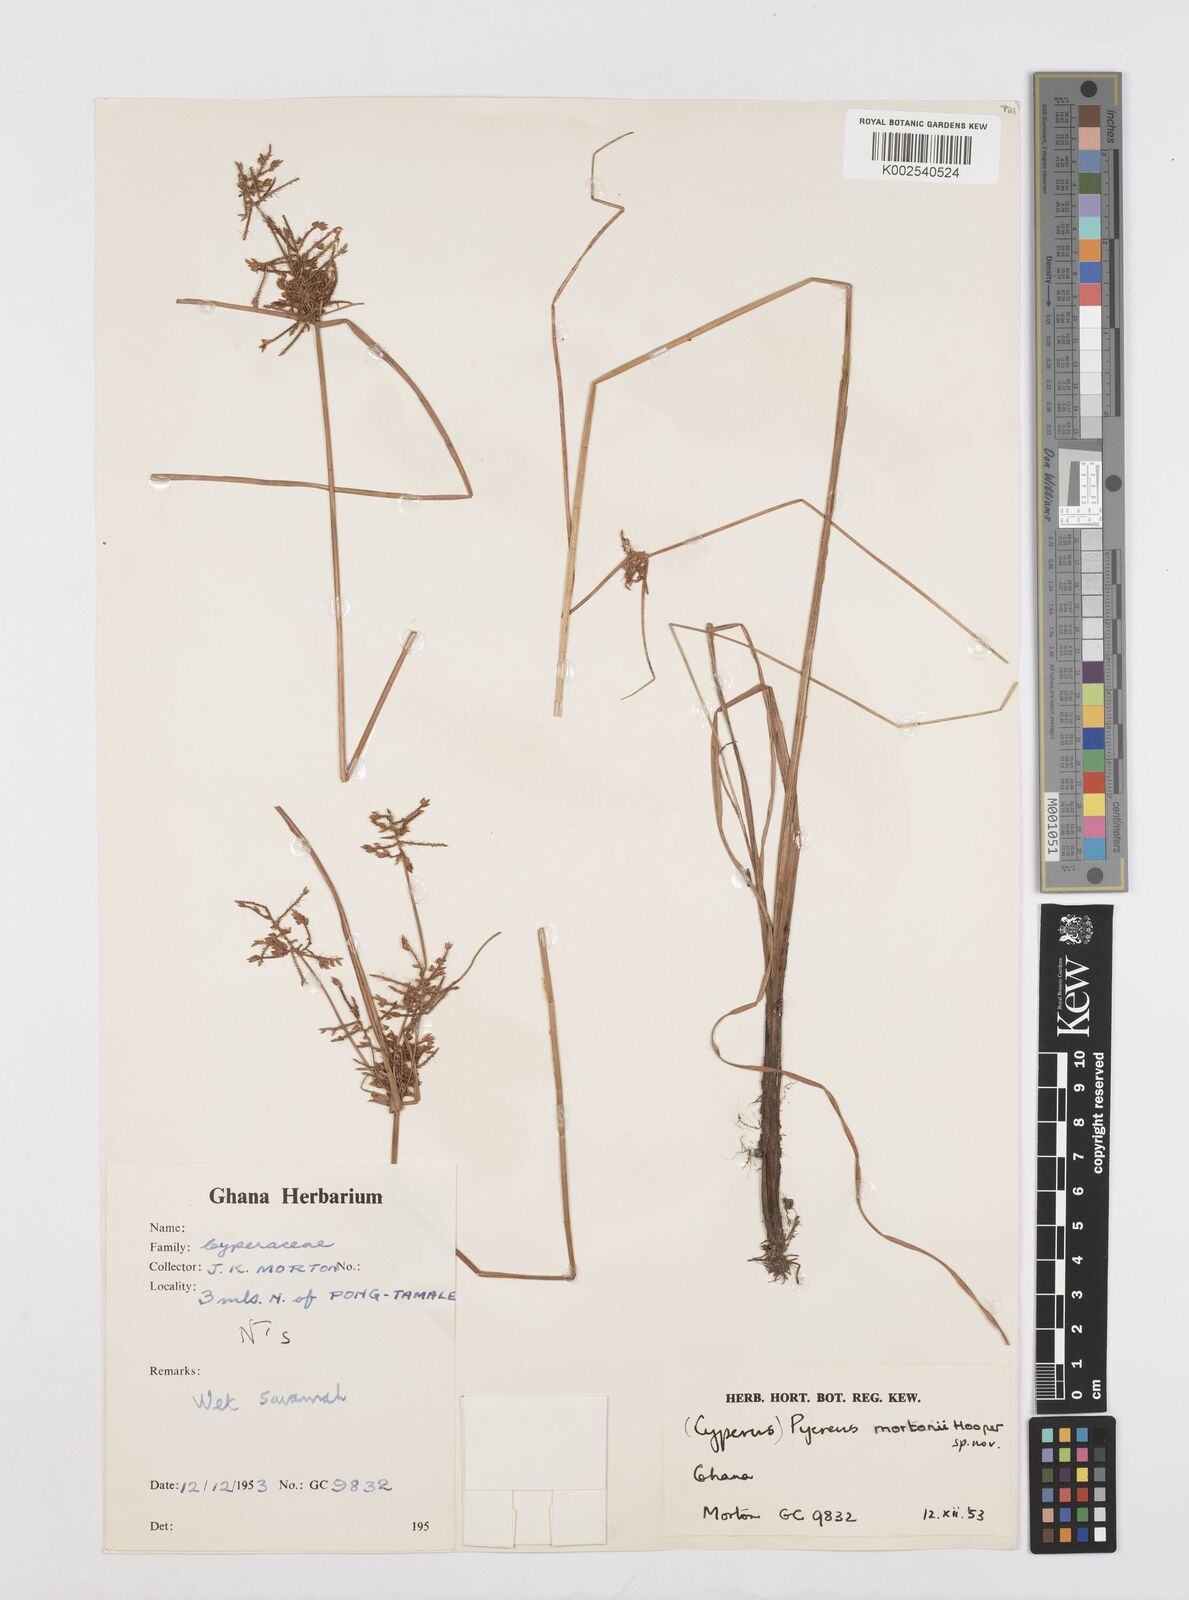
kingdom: Plantae
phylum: Tracheophyta
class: Liliopsida
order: Poales
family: Cyperaceae
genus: Cyperus
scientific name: Cyperus mortonii
